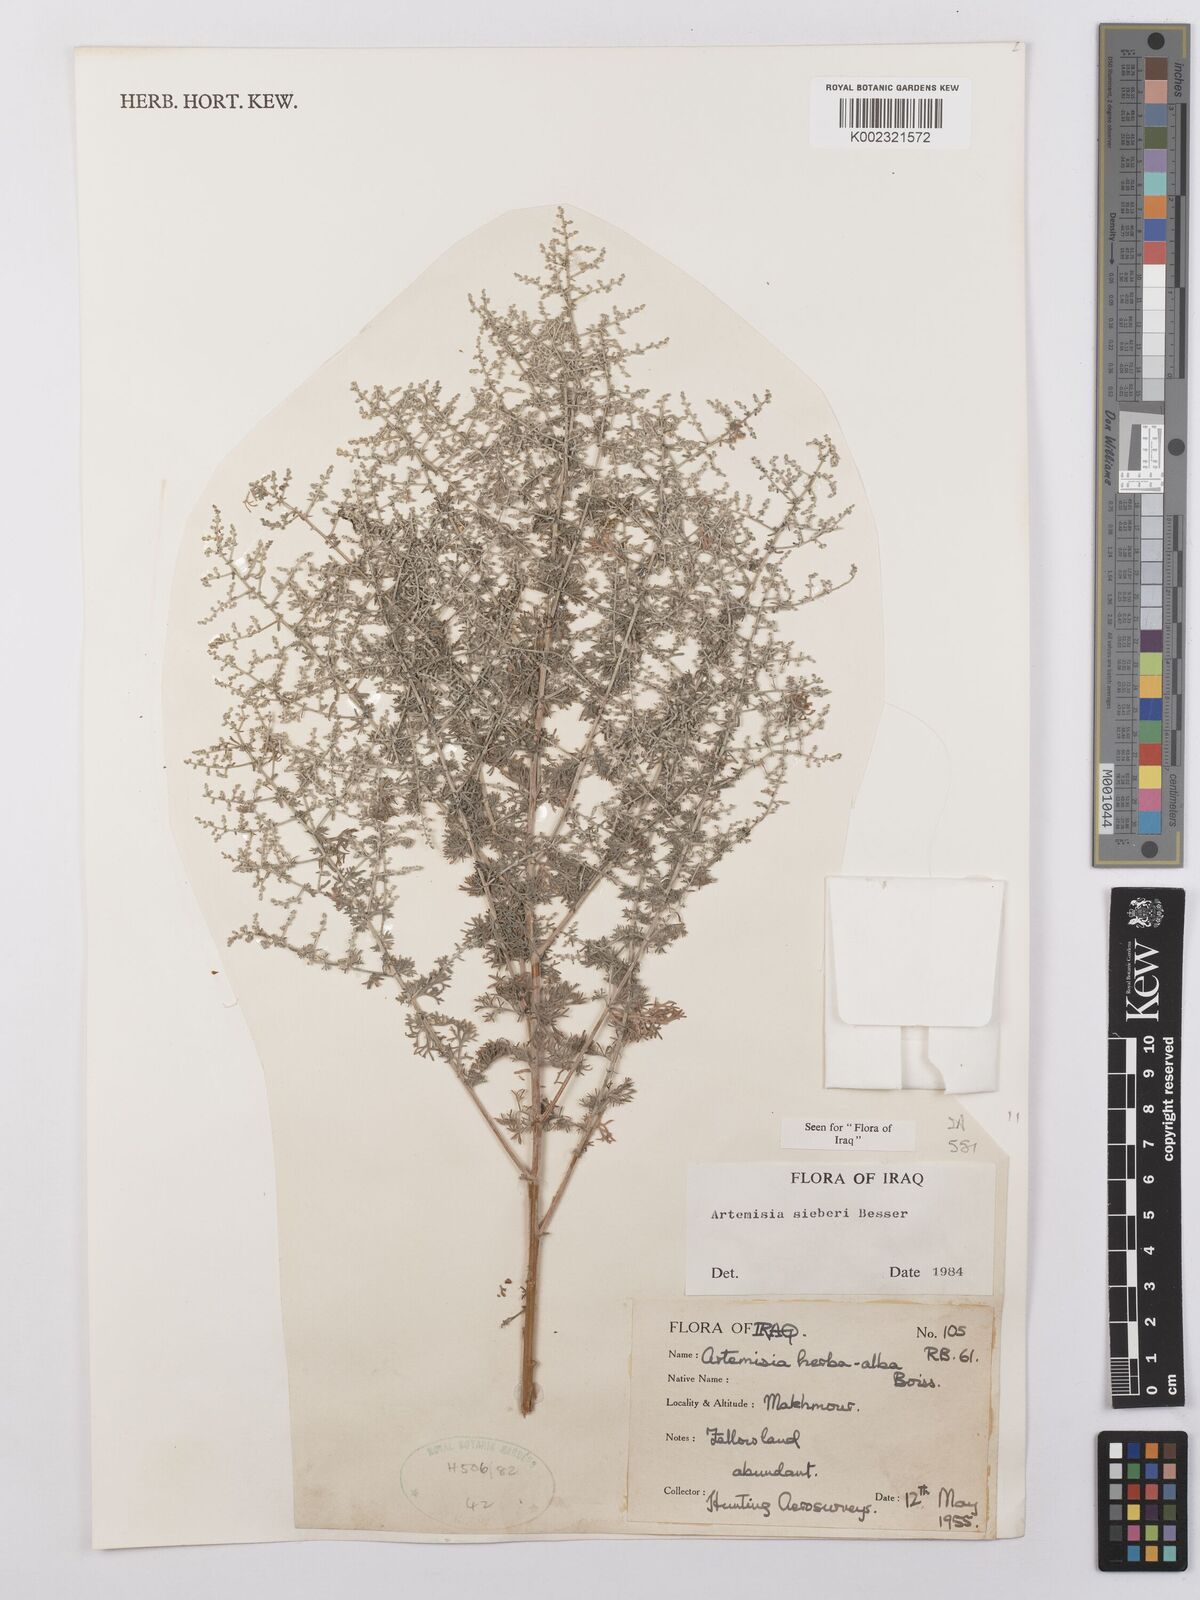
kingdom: Plantae
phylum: Tracheophyta
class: Magnoliopsida
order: Asterales
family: Asteraceae
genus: Artemisia
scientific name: Artemisia sieberi
